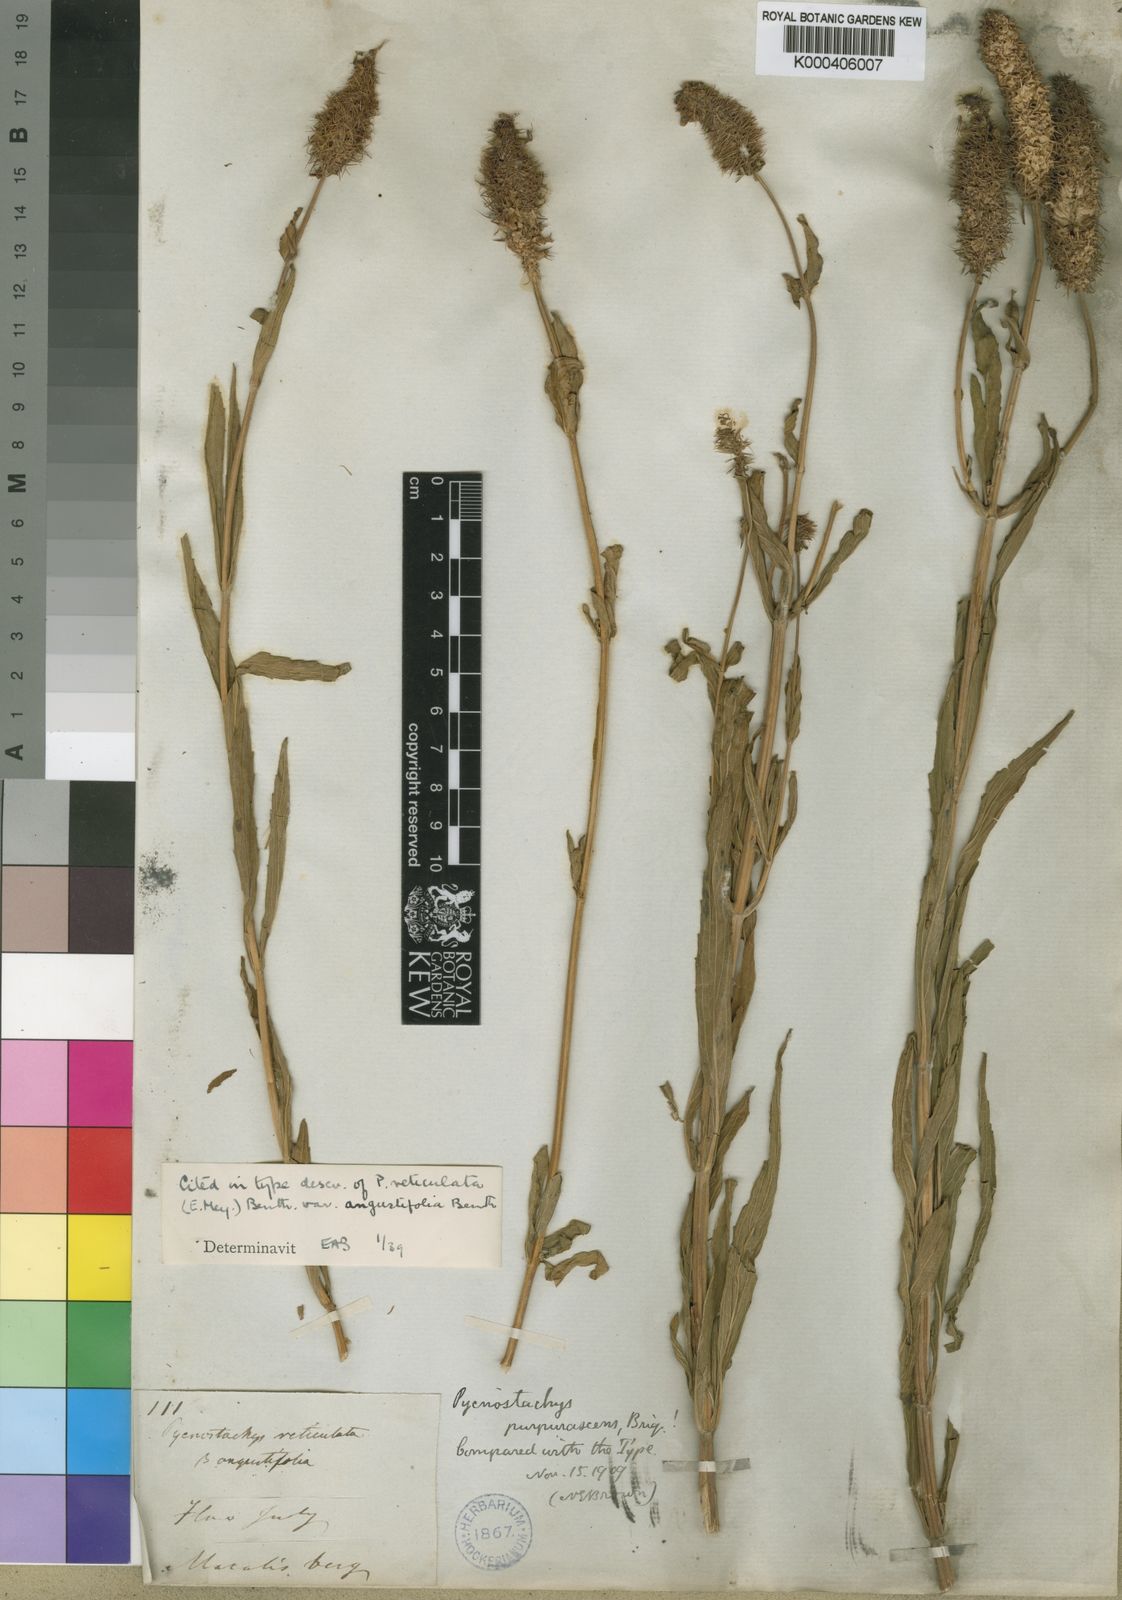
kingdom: Plantae
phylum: Tracheophyta
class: Magnoliopsida
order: Lamiales
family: Lamiaceae
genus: Coleus
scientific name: Coleus kirkii
